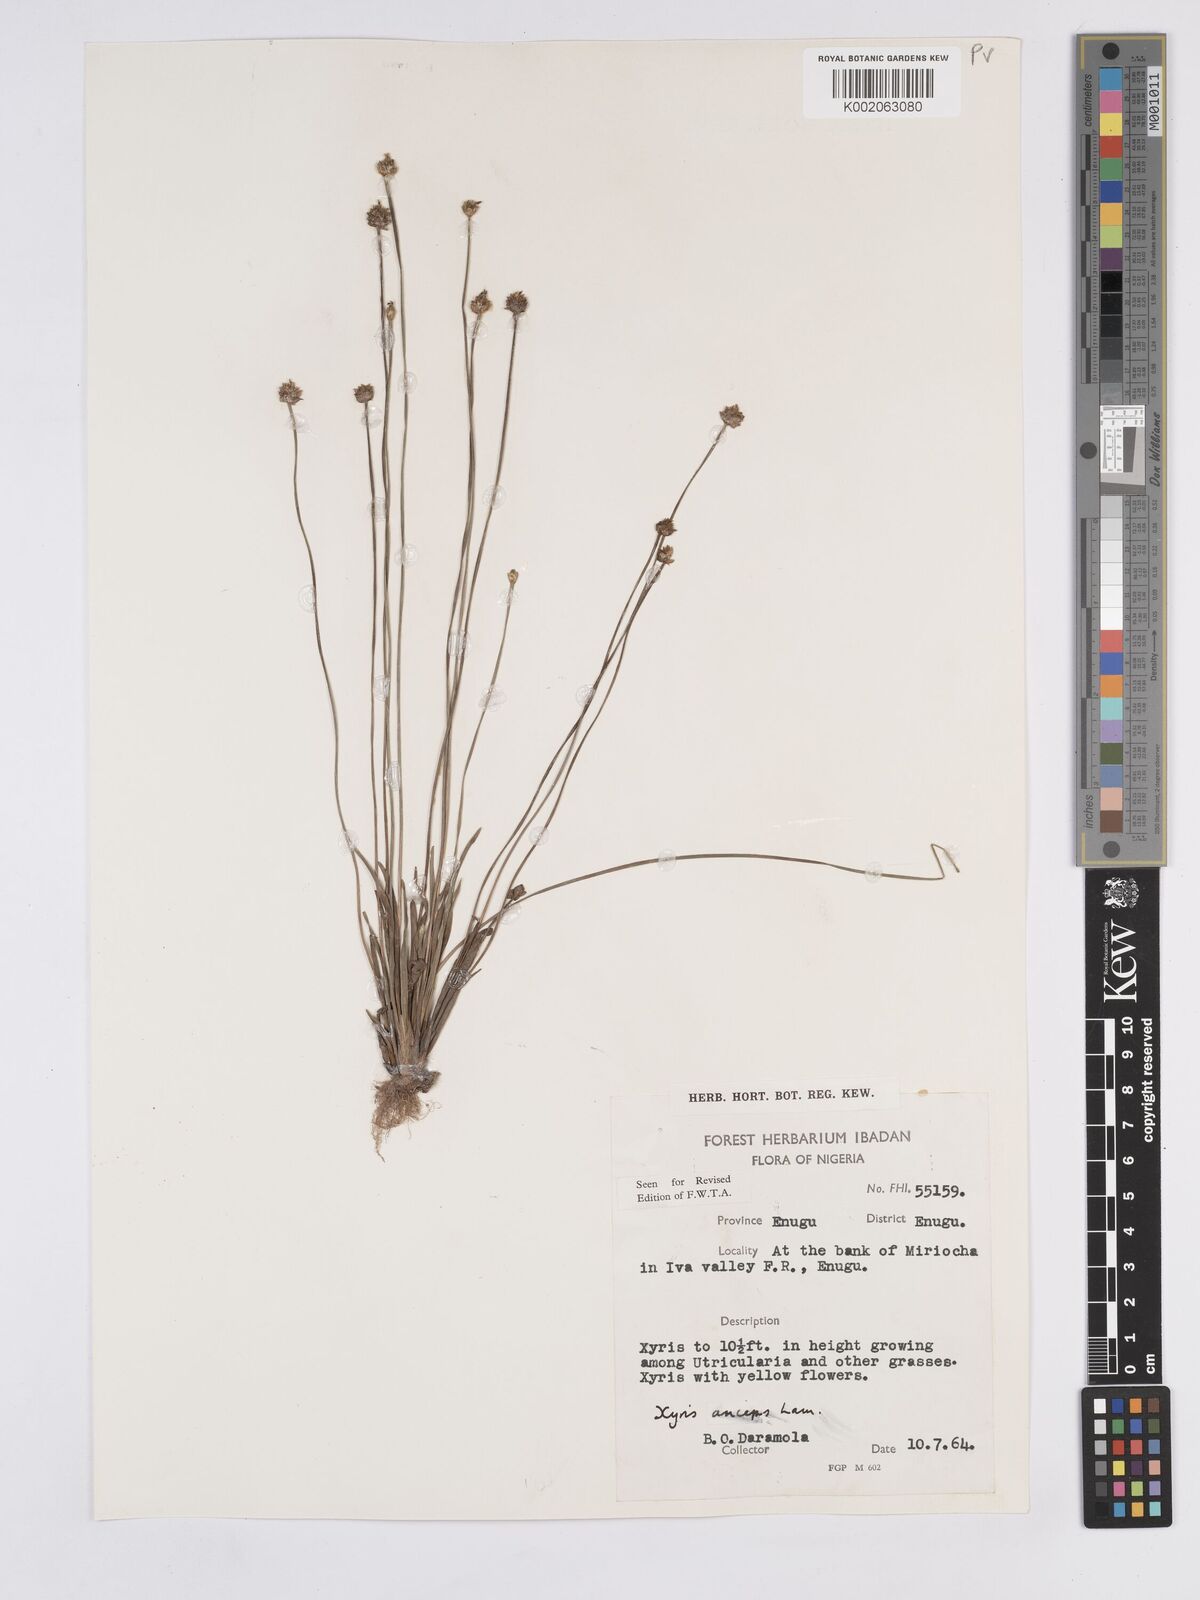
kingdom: Plantae
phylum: Tracheophyta
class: Liliopsida
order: Poales
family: Xyridaceae
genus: Xyris
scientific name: Xyris anceps
